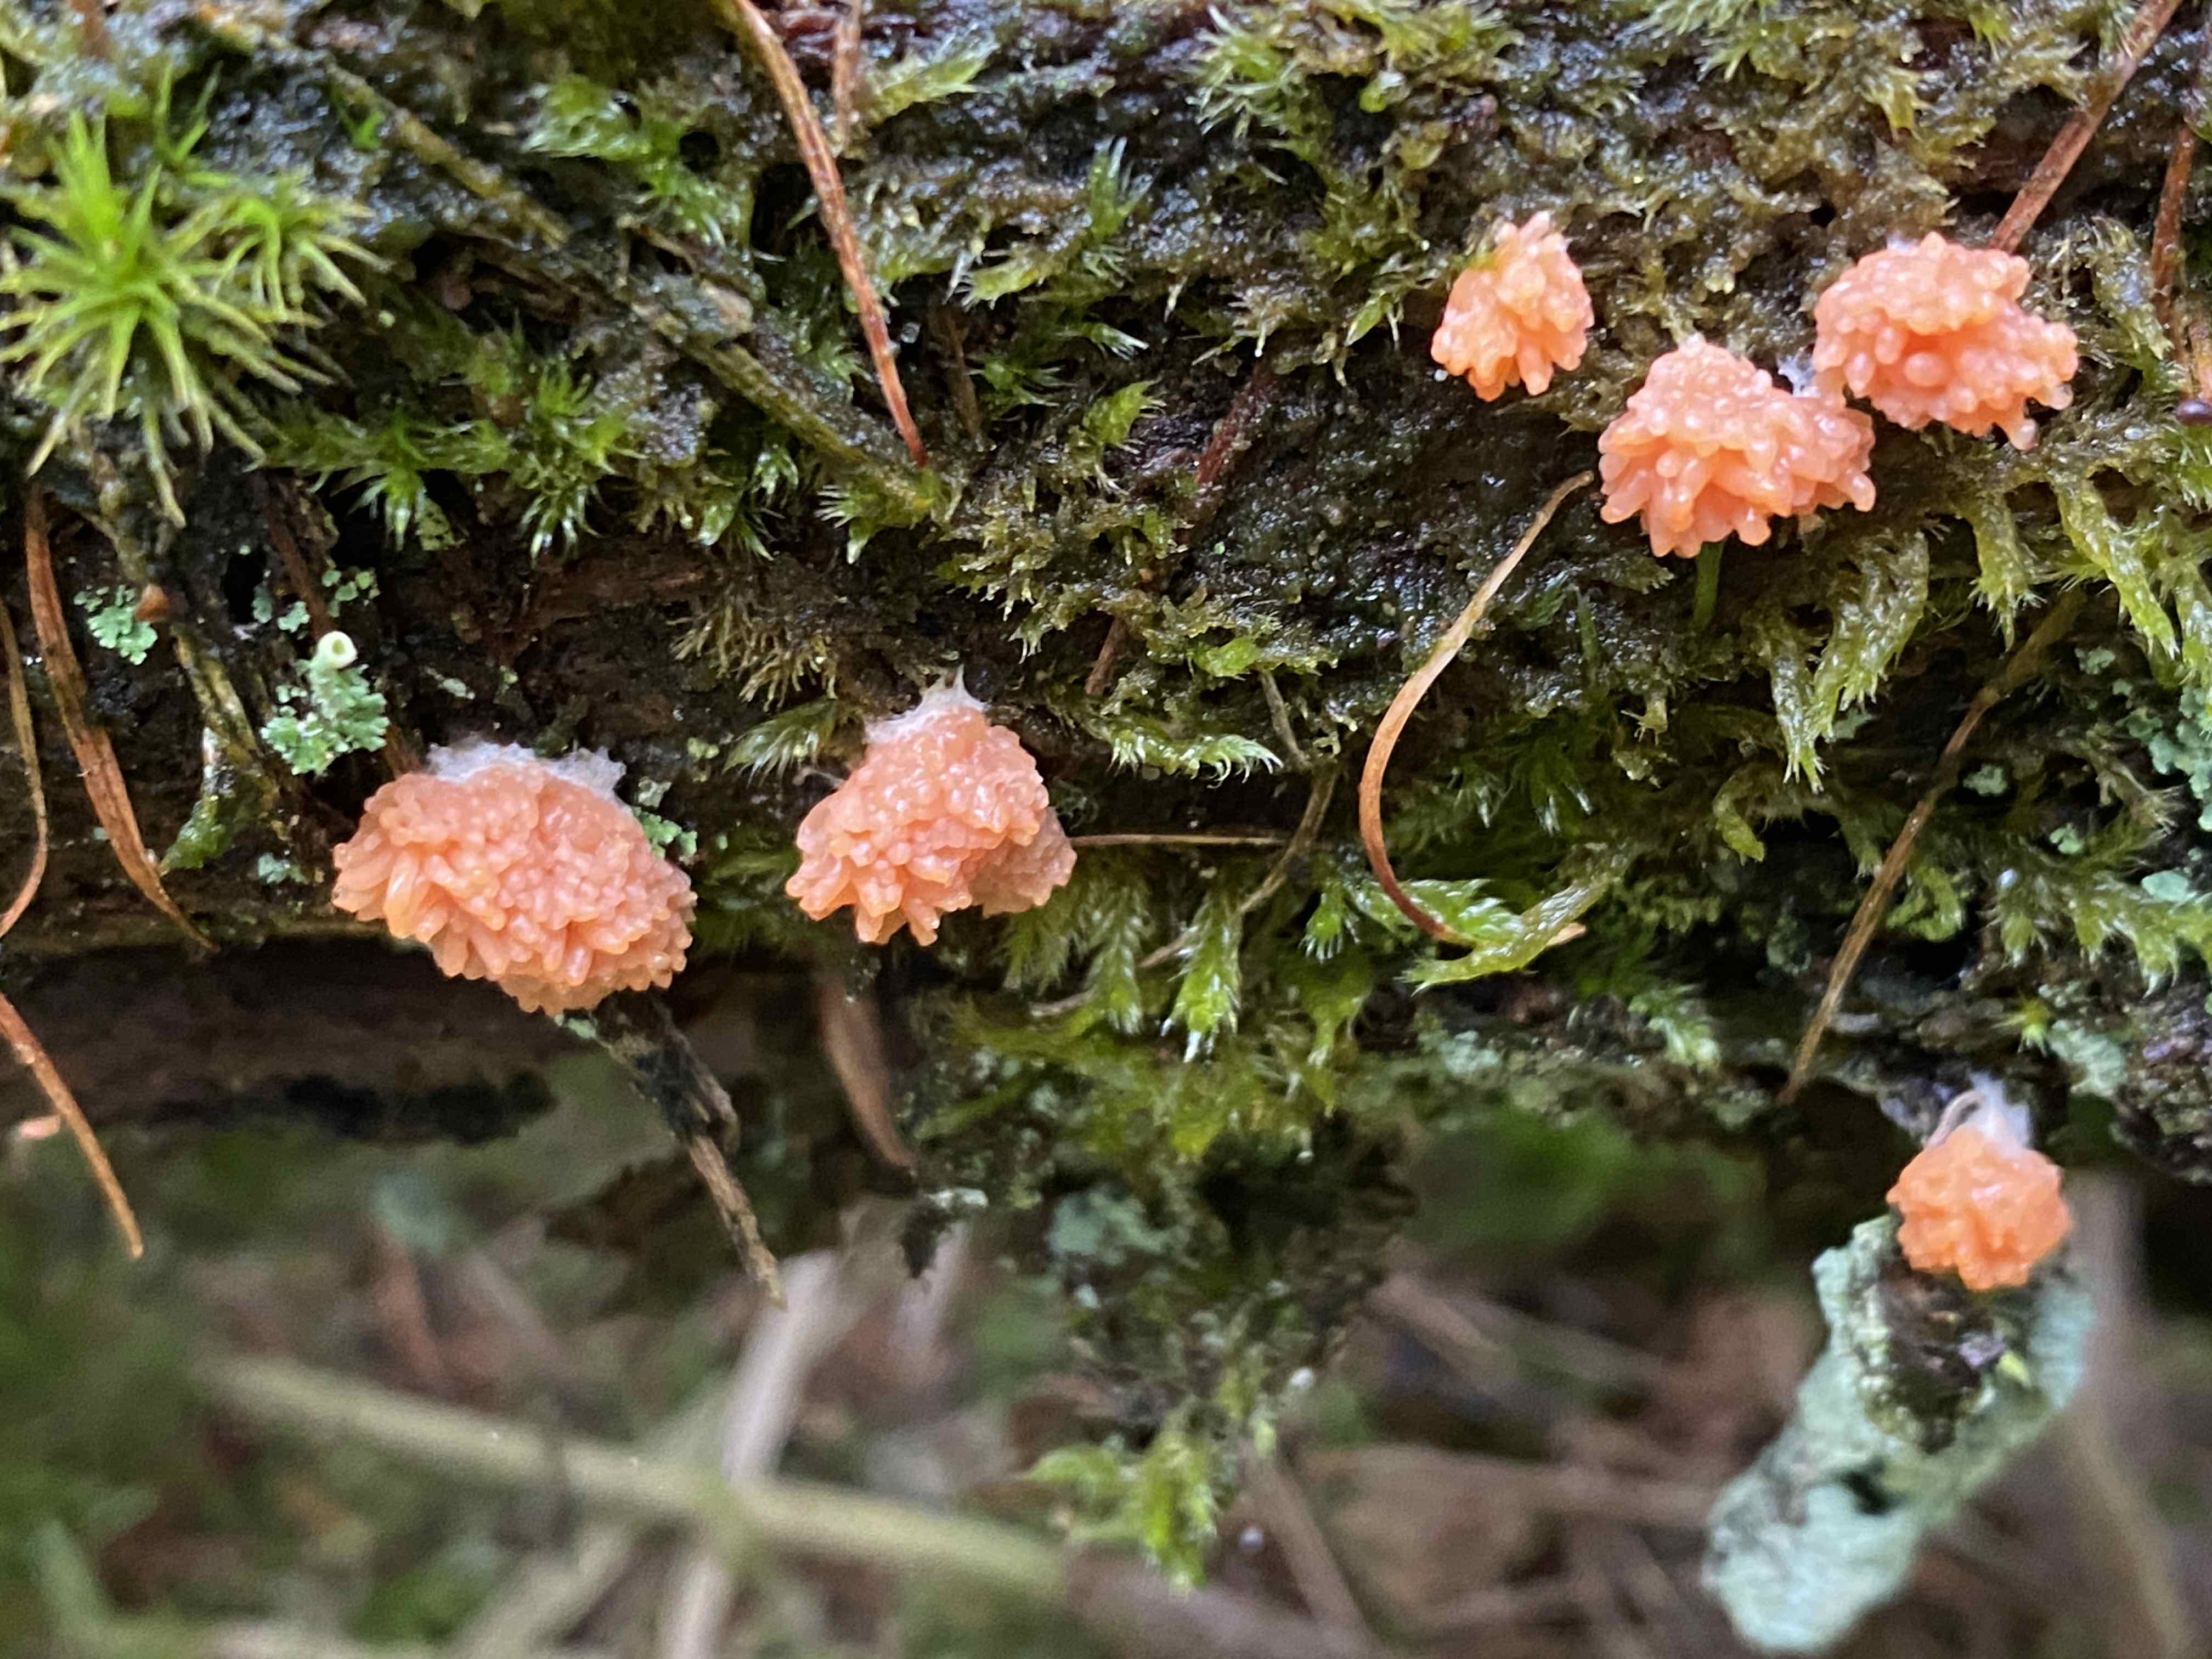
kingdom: Protozoa
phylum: Mycetozoa
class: Myxomycetes
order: Cribrariales
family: Tubiferaceae
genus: Tubifera
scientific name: Tubifera ferruginosa
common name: kanel-støvrør
